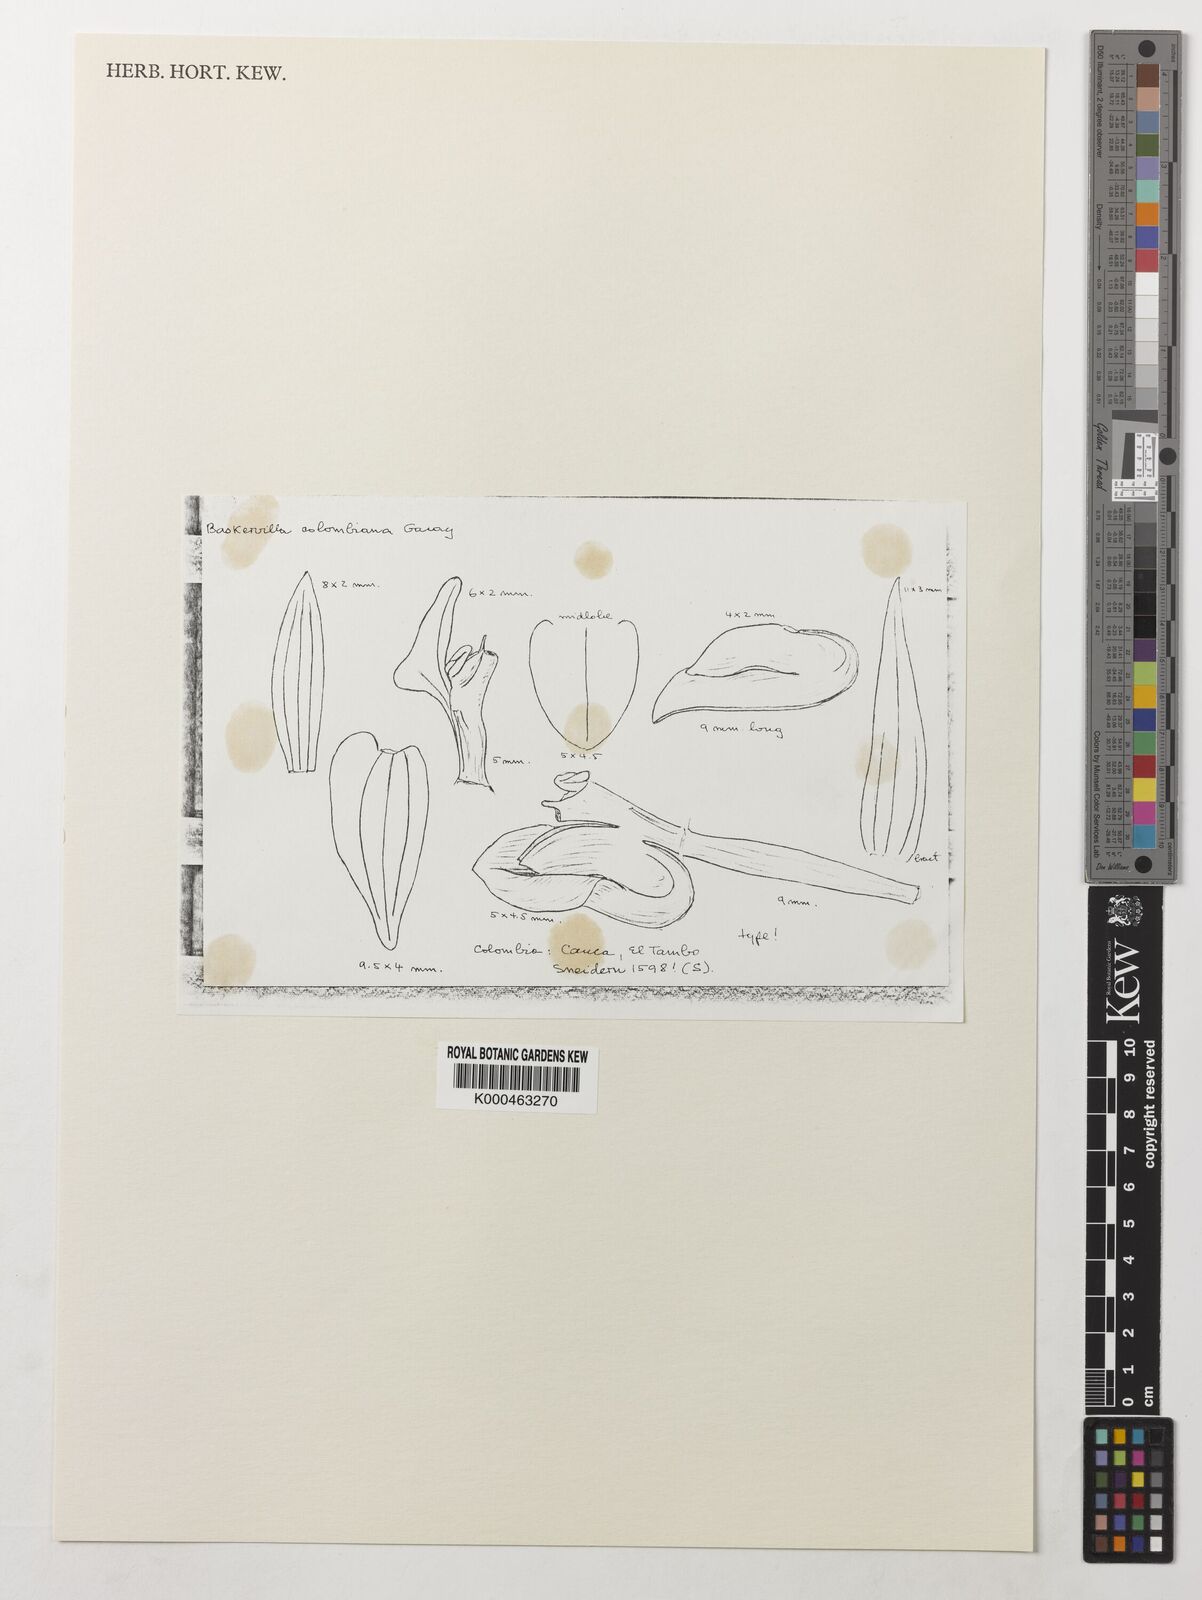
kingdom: Plantae
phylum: Tracheophyta
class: Liliopsida
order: Asparagales
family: Orchidaceae
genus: Cranichis
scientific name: Cranichis
